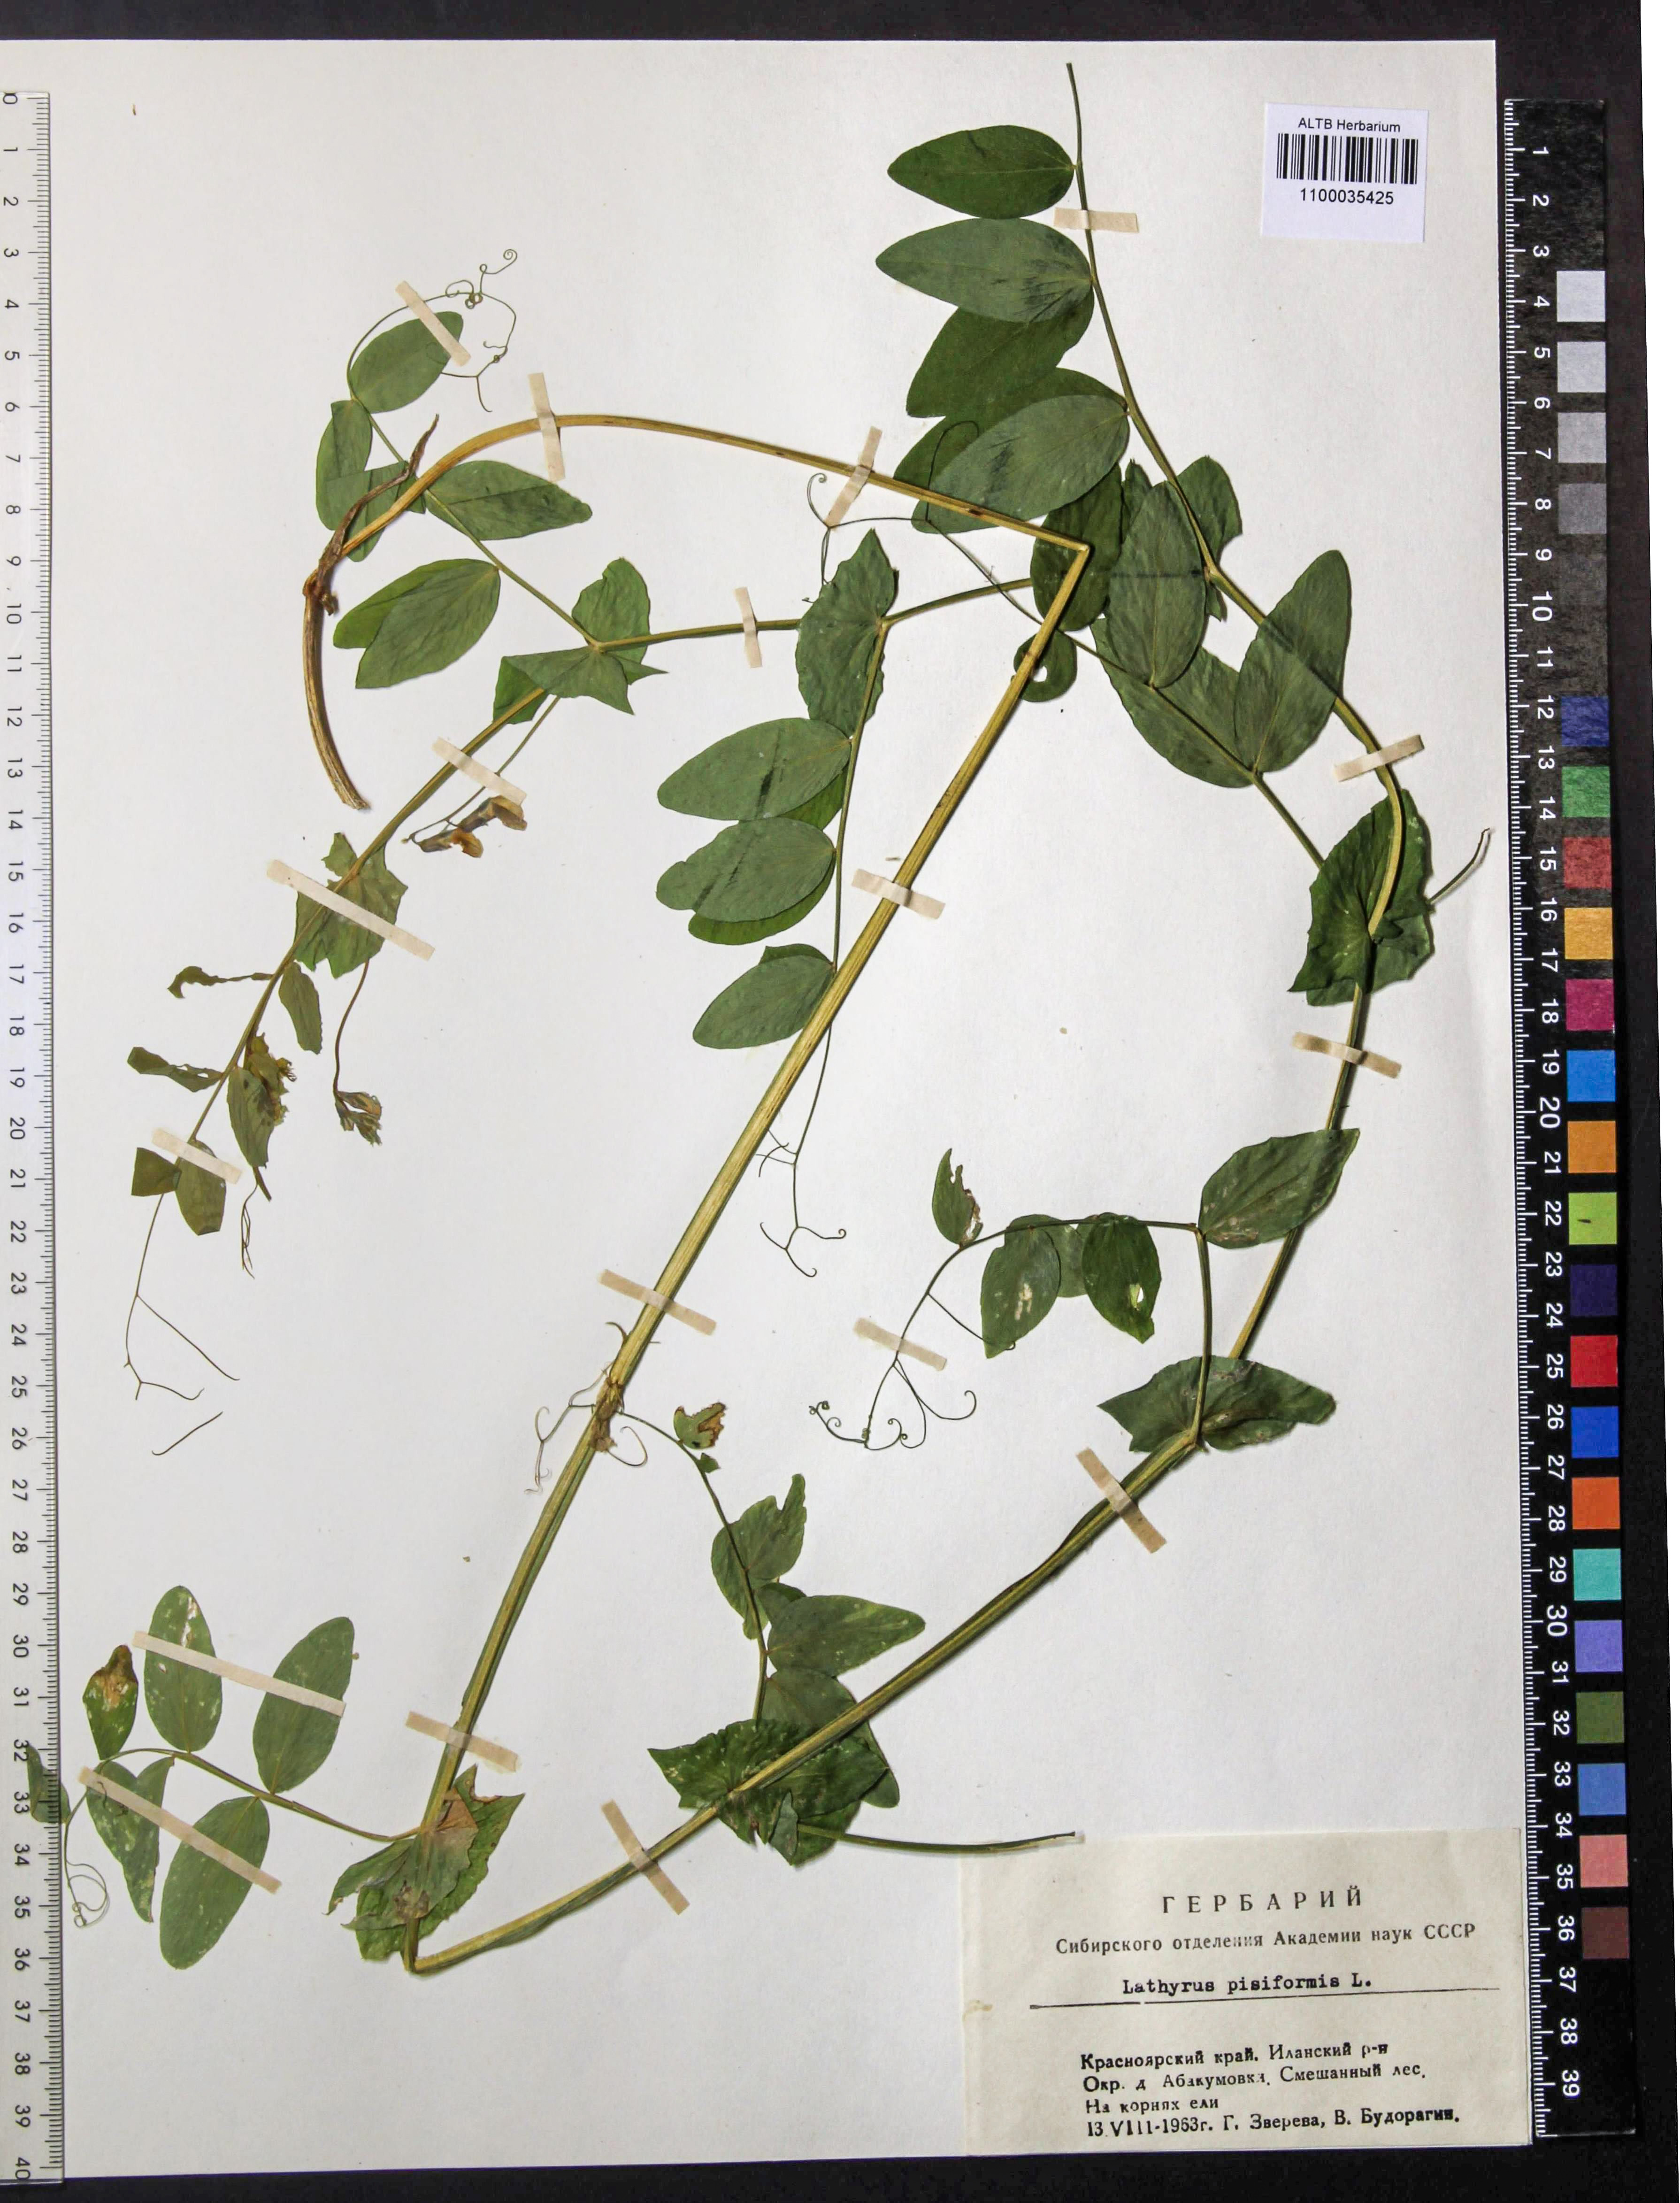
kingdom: Plantae
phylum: Tracheophyta
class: Magnoliopsida
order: Fabales
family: Fabaceae
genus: Lathyrus
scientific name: Lathyrus pisiformis
